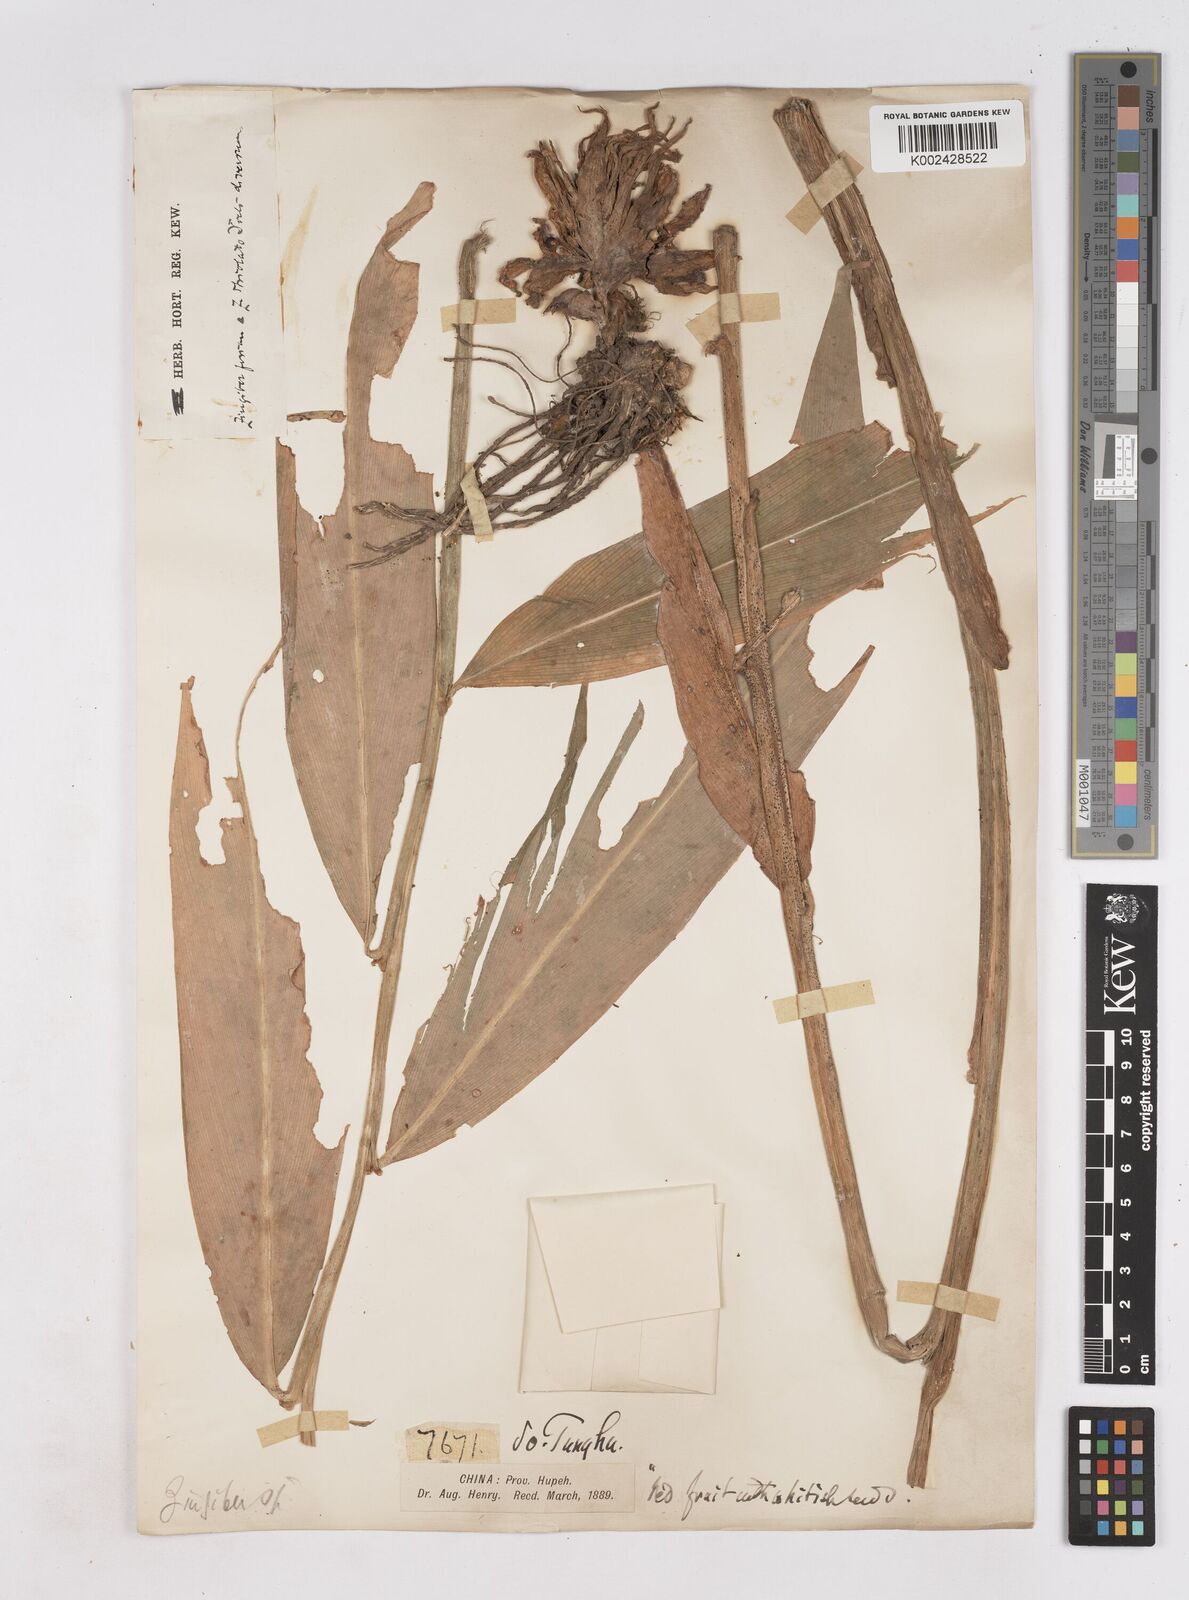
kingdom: Plantae
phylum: Tracheophyta
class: Liliopsida
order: Zingiberales
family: Zingiberaceae
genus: Zingiber
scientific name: Zingiber striolatum
